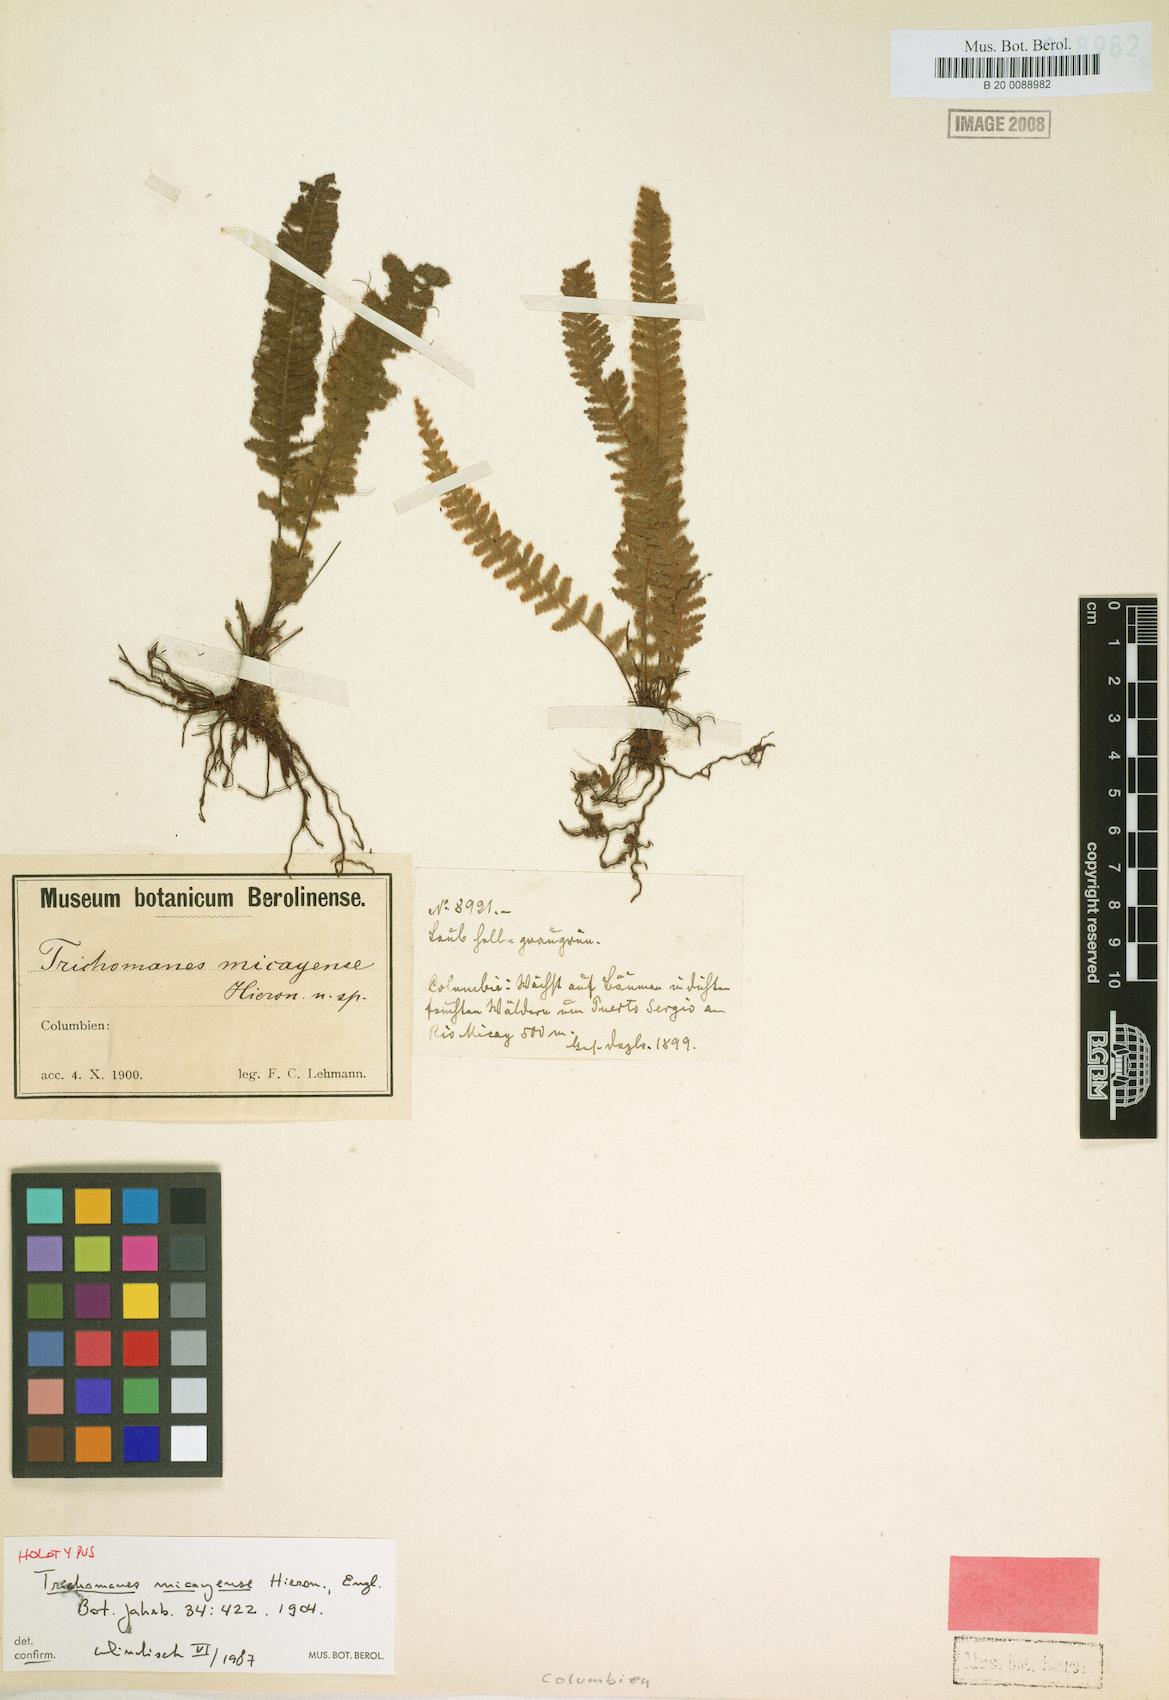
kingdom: Plantae
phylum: Tracheophyta
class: Polypodiopsida
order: Hymenophyllales
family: Hymenophyllaceae
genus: Trichomanes
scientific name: Trichomanes micayense
